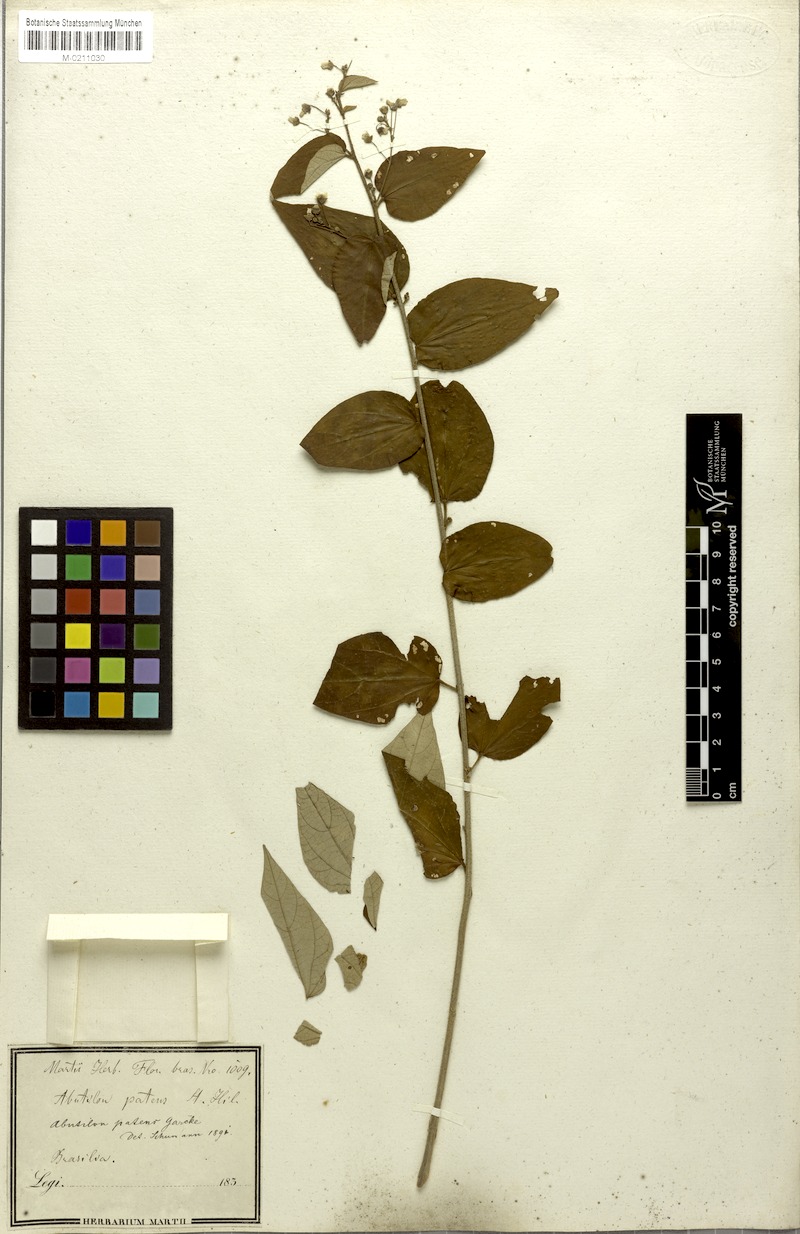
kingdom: Plantae
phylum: Tracheophyta
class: Magnoliopsida
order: Malvales
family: Malvaceae
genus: Wissadula
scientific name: Wissadula excelsior
